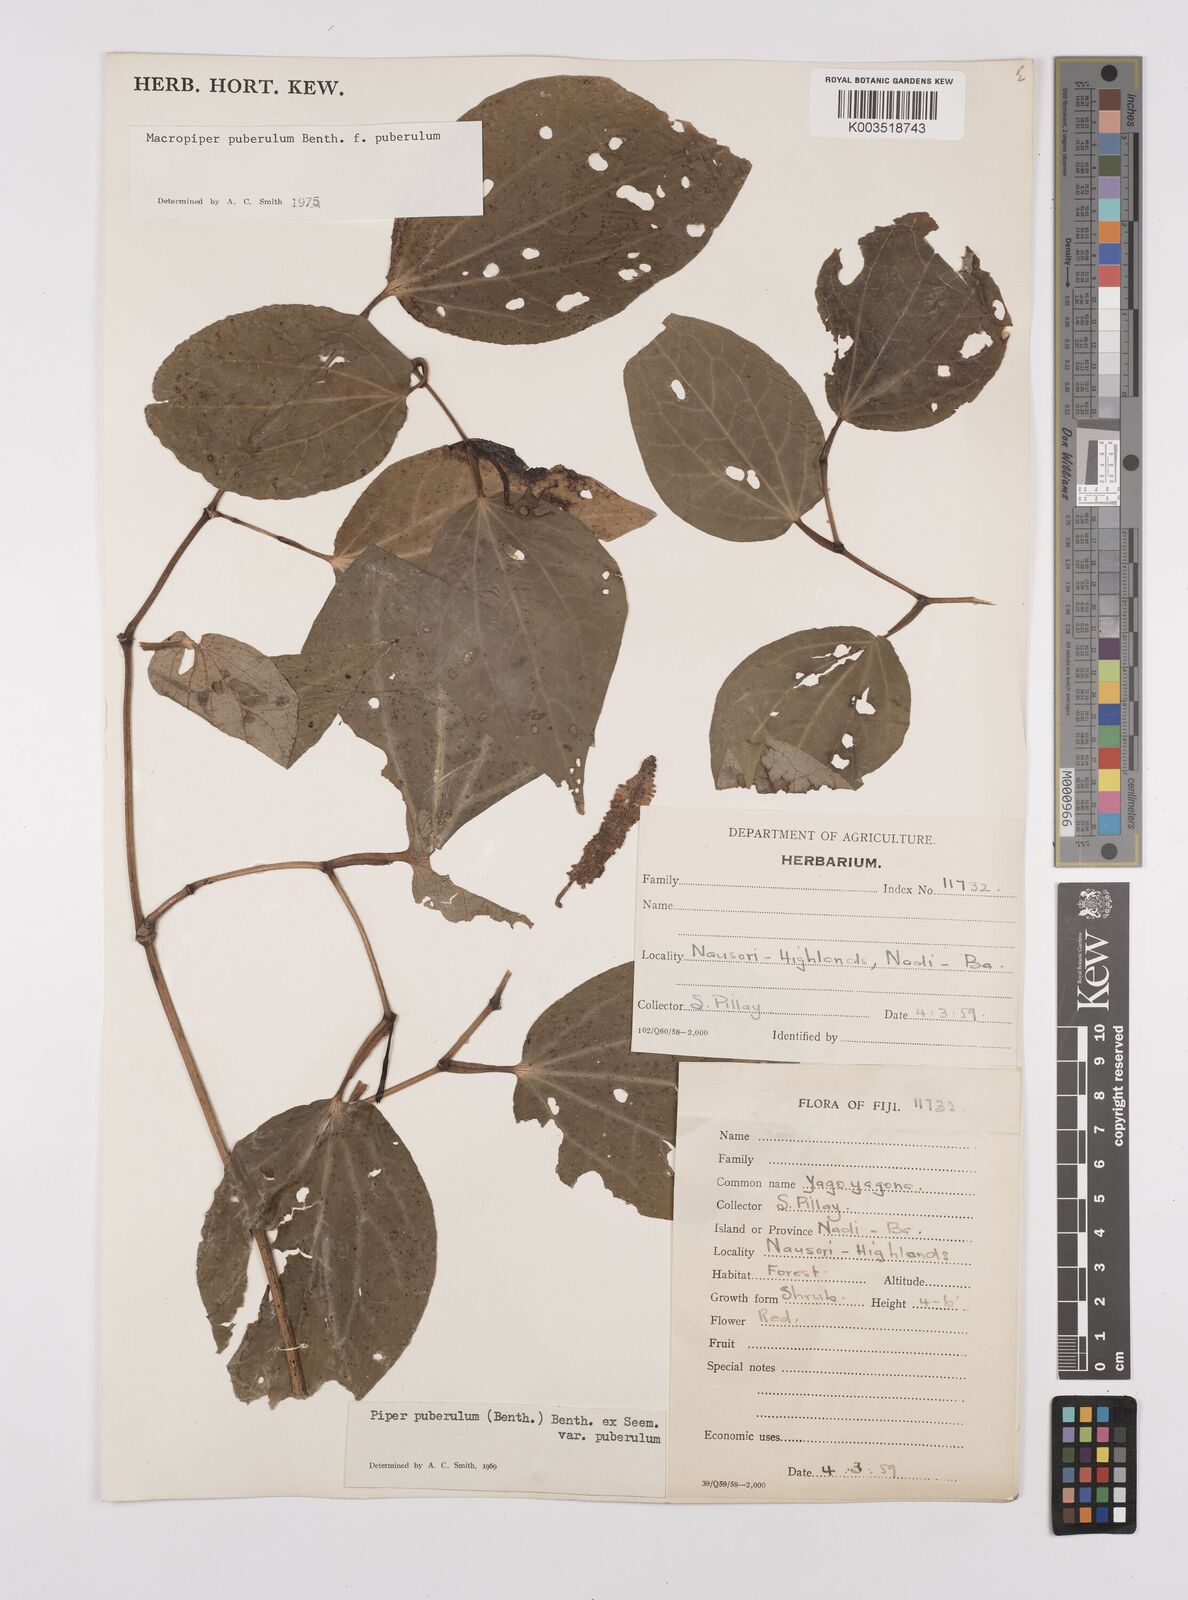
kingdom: Plantae
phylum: Tracheophyta
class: Magnoliopsida
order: Piperales
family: Piperaceae
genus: Macropiper
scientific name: Macropiper puberulum
